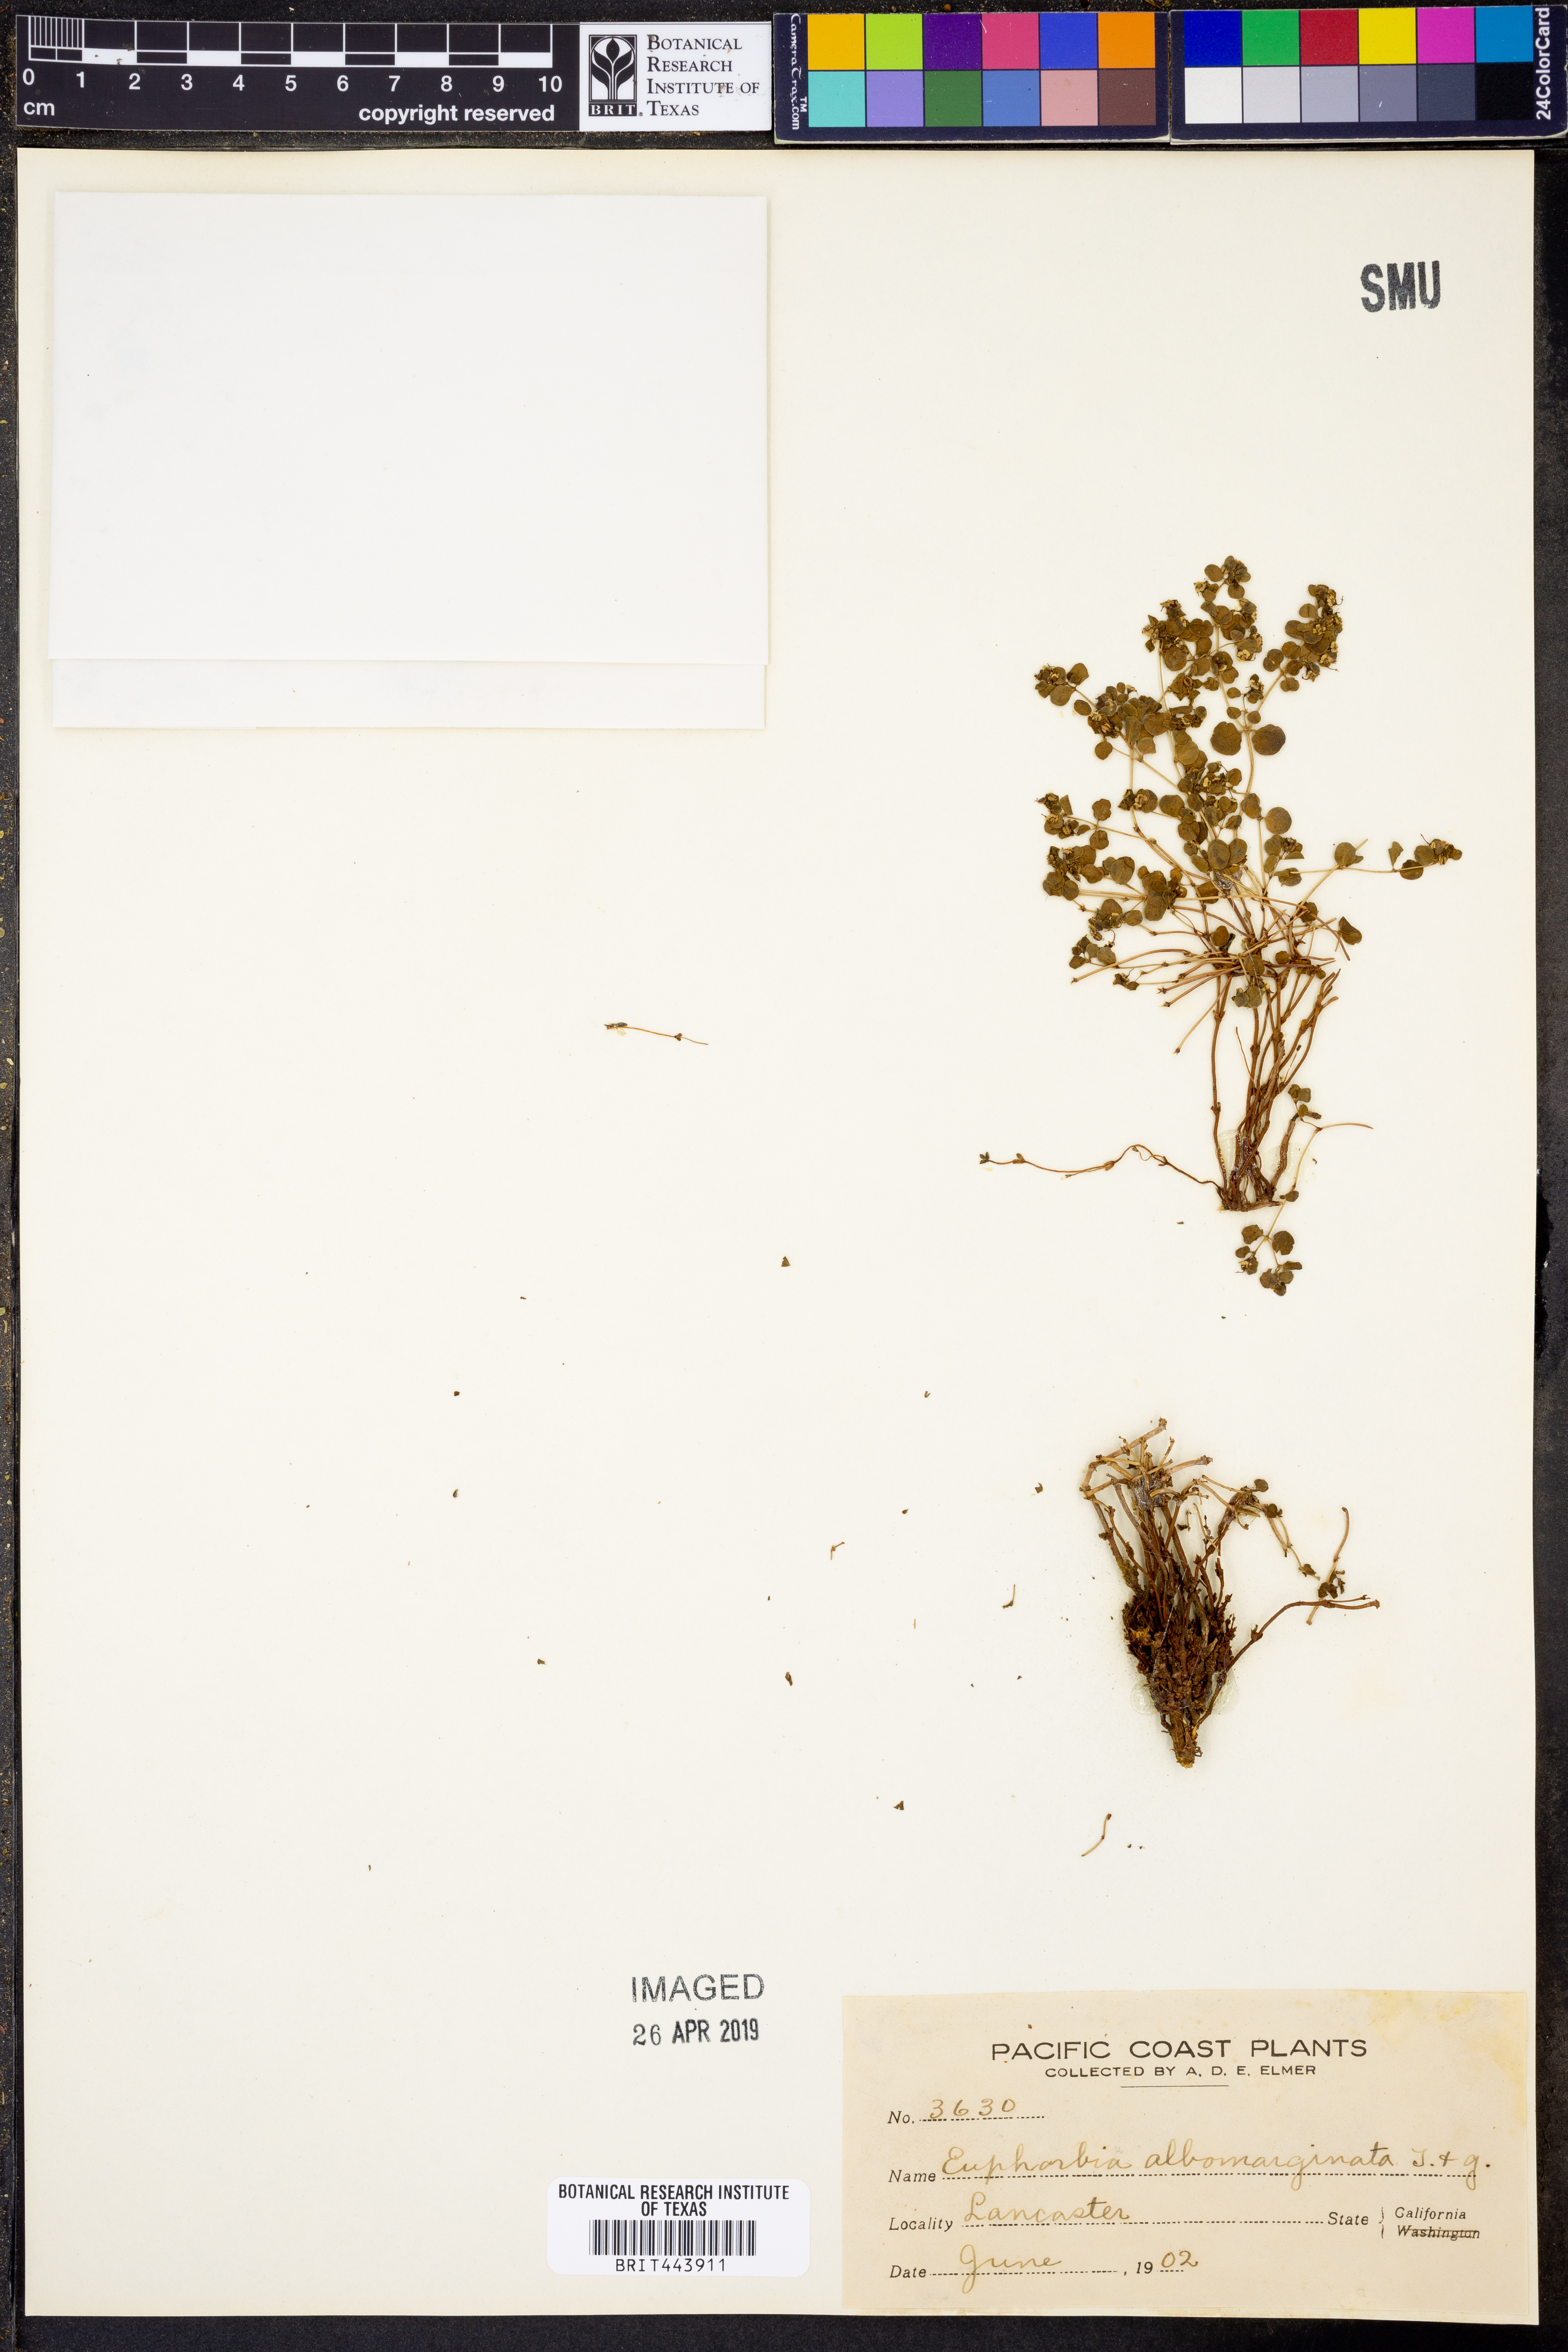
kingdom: Plantae
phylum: Tracheophyta
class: Magnoliopsida
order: Malpighiales
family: Euphorbiaceae
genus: Euphorbia
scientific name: Euphorbia albomarginata
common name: Whitemargin sandmat
